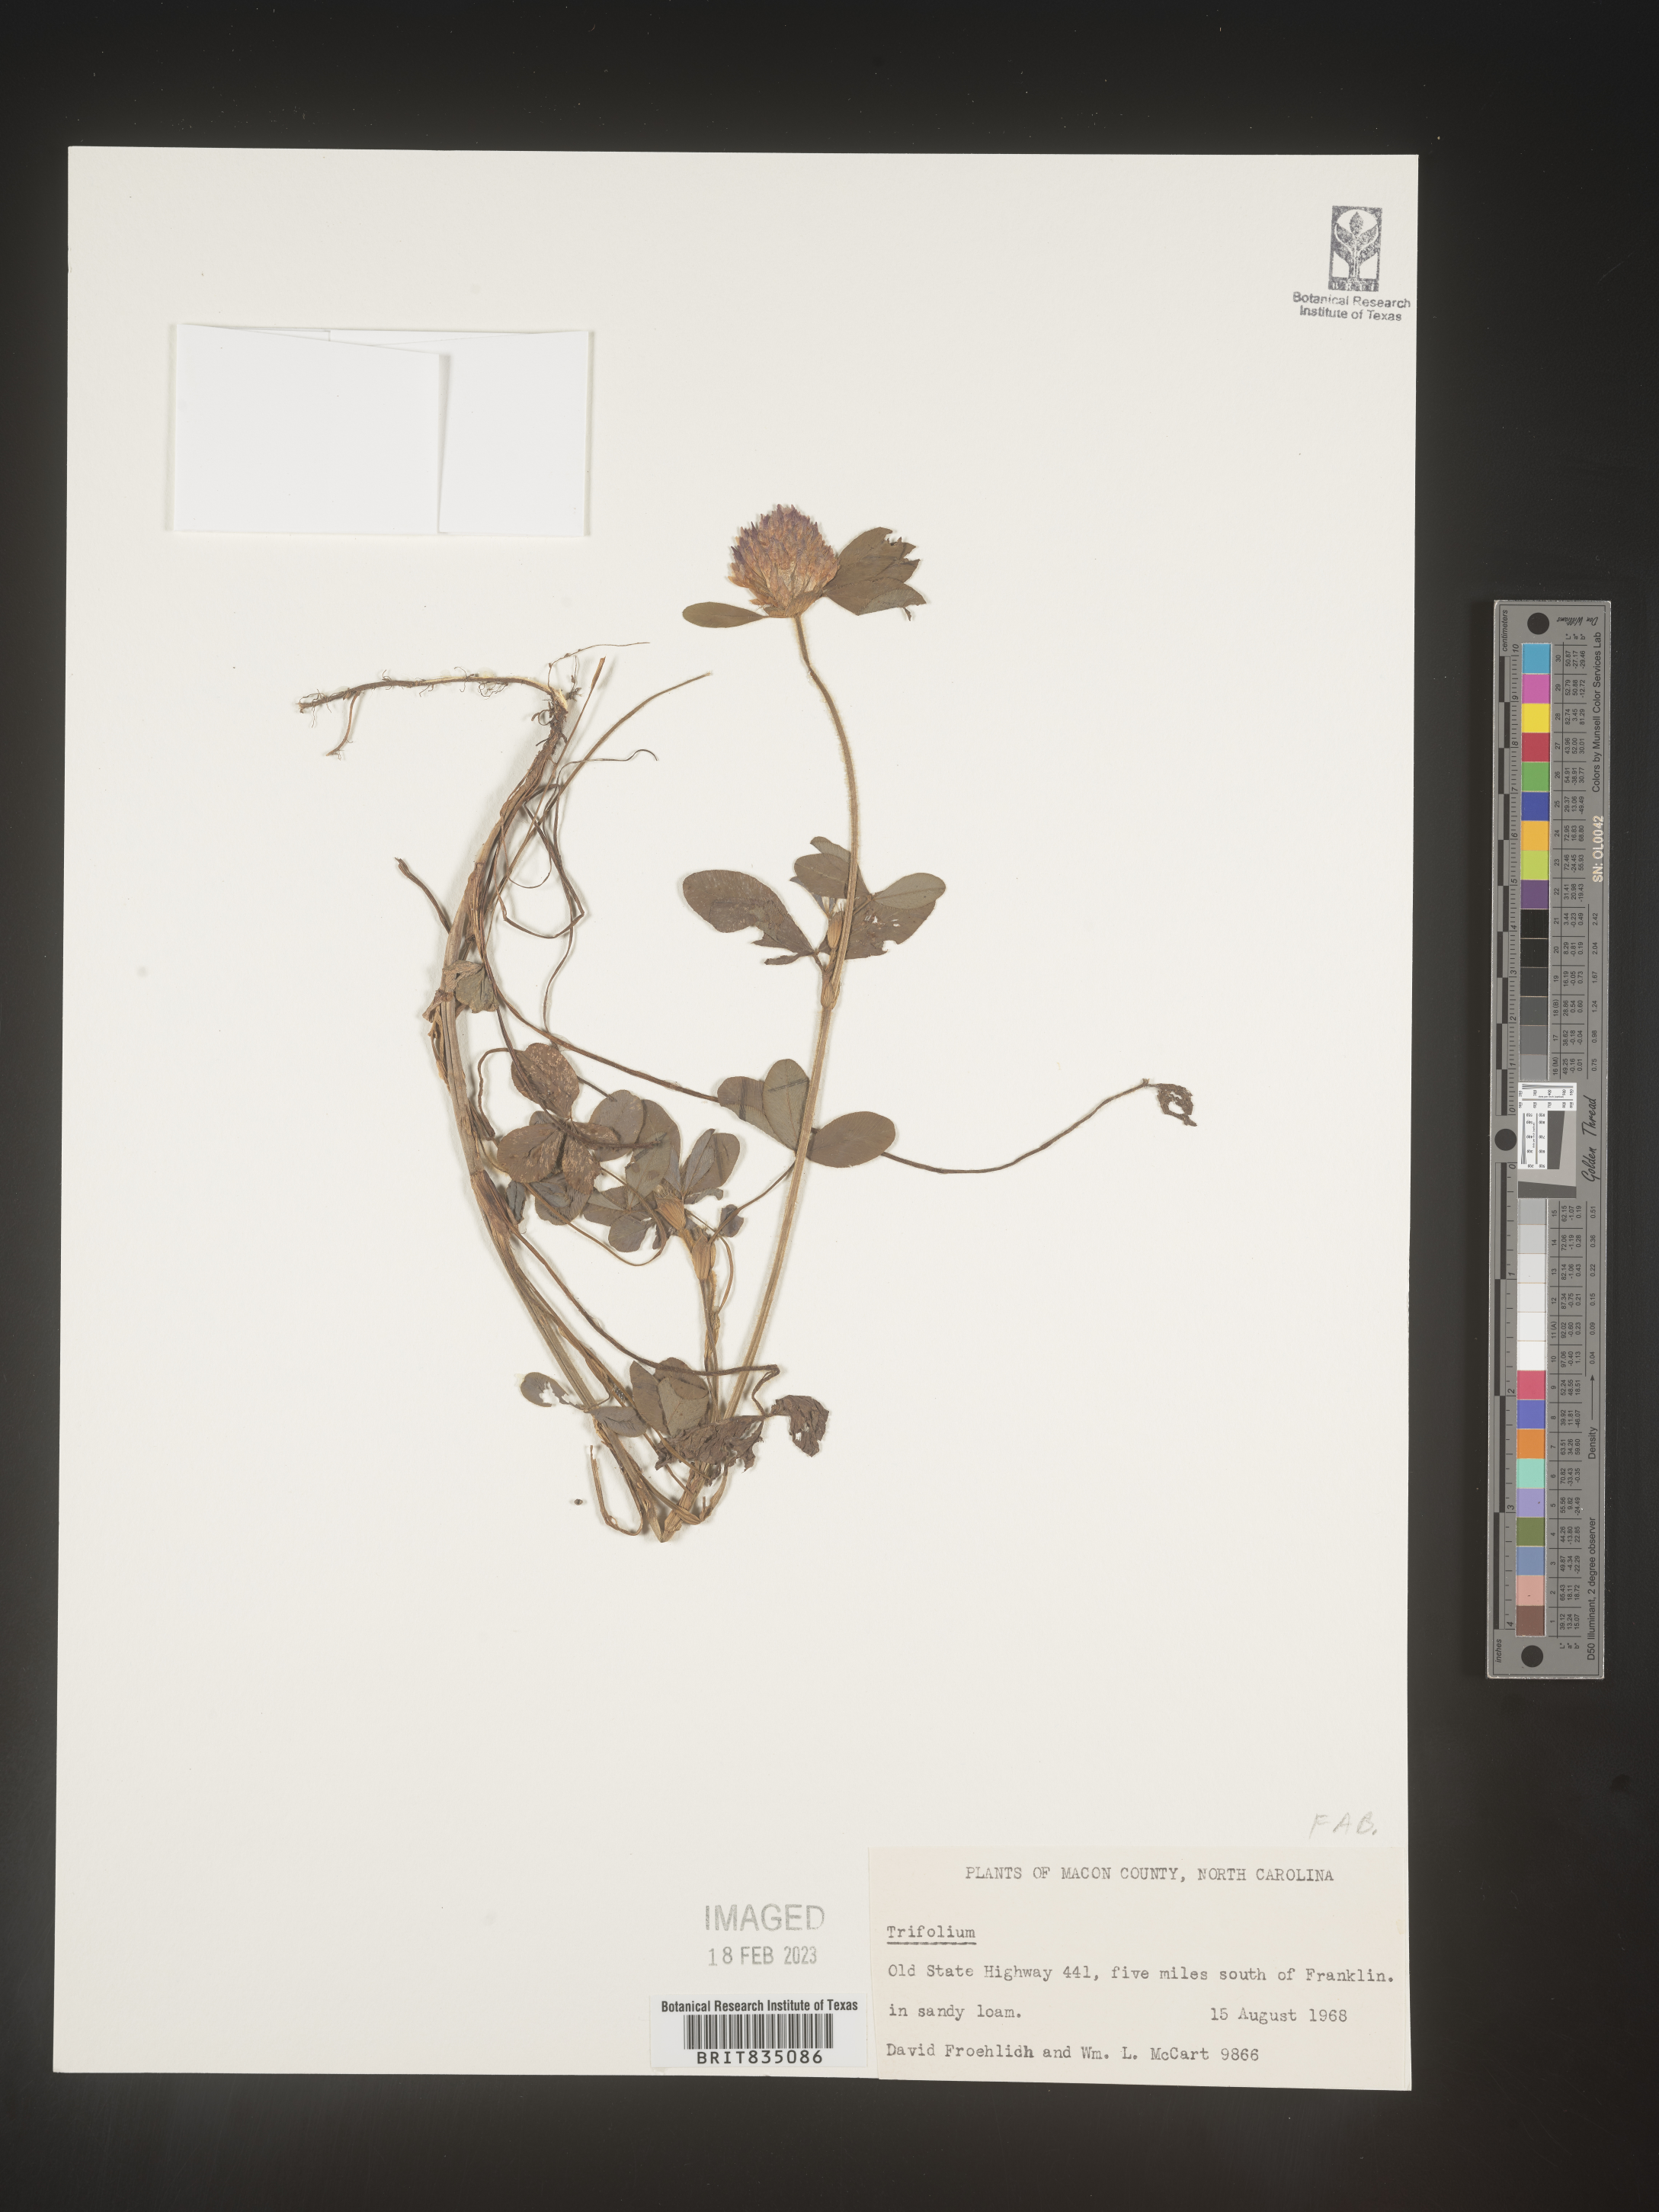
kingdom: Plantae
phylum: Tracheophyta
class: Magnoliopsida
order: Fabales
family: Fabaceae
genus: Trifolium
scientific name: Trifolium
